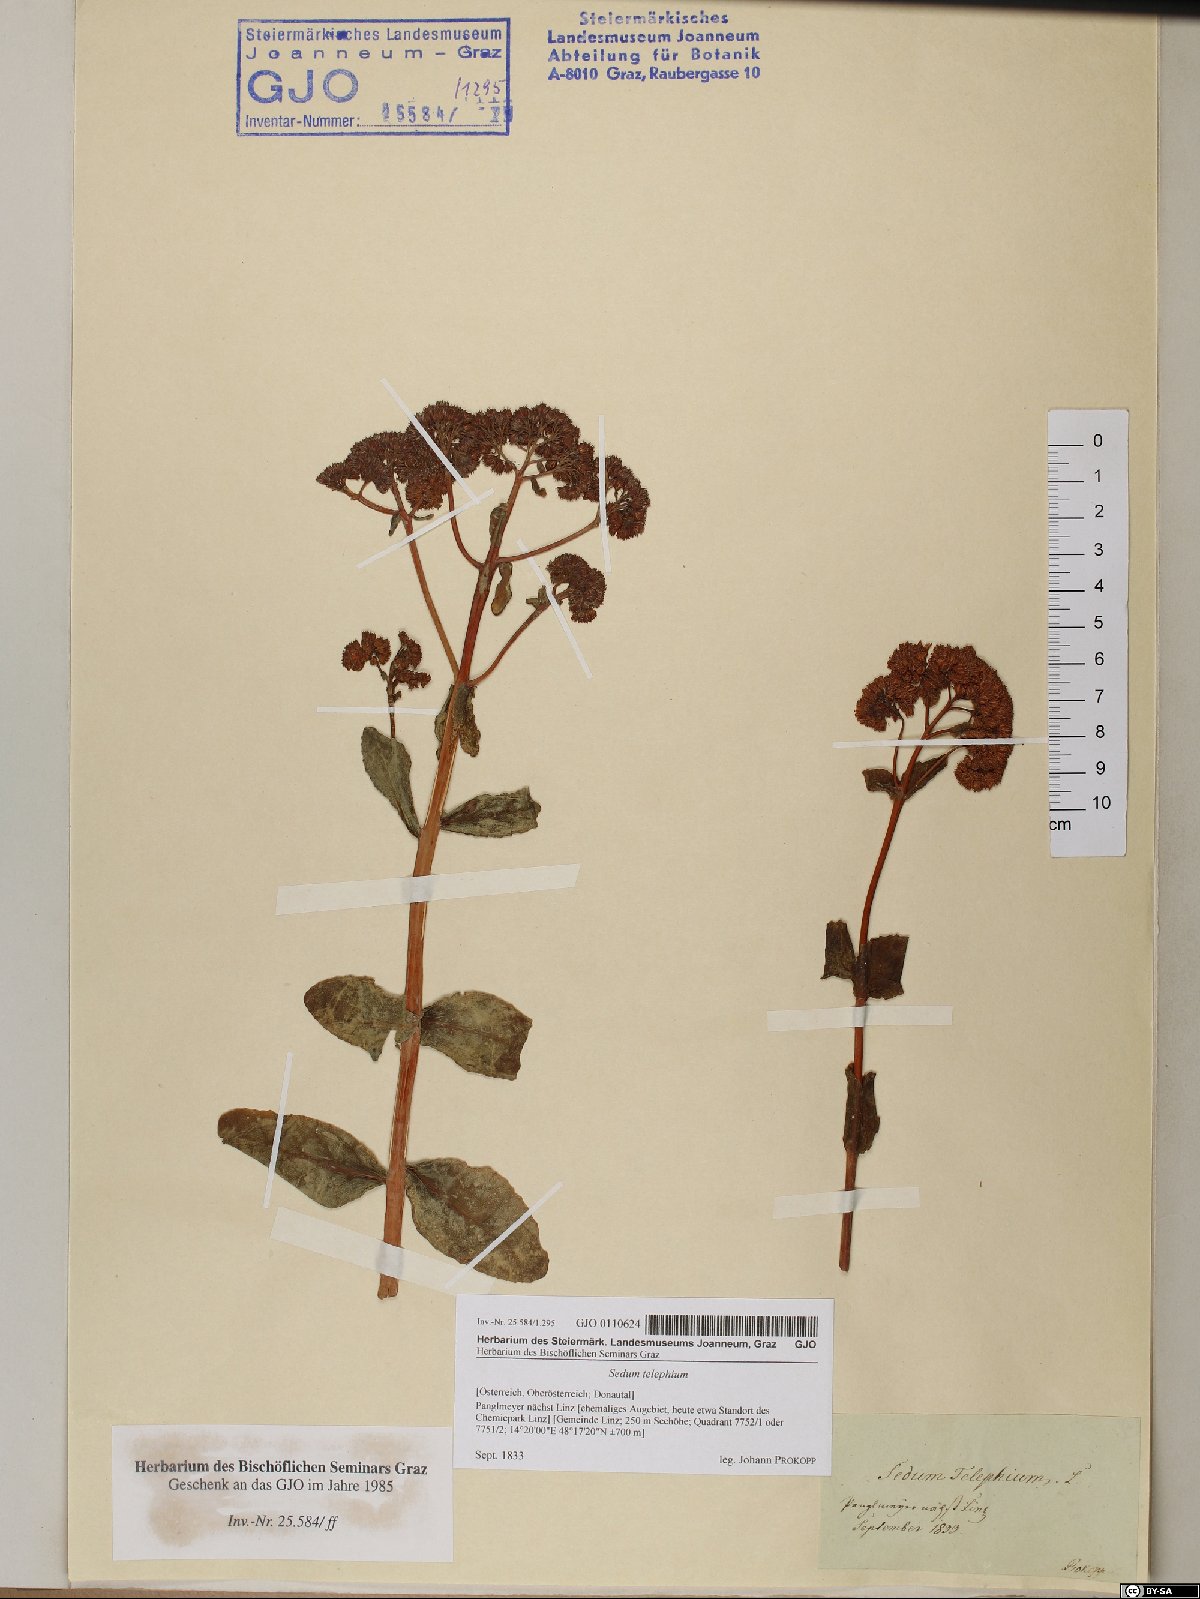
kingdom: Plantae
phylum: Tracheophyta
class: Magnoliopsida
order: Saxifragales
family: Crassulaceae
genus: Hylotelephium
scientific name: Hylotelephium telephium
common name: Live-forever
